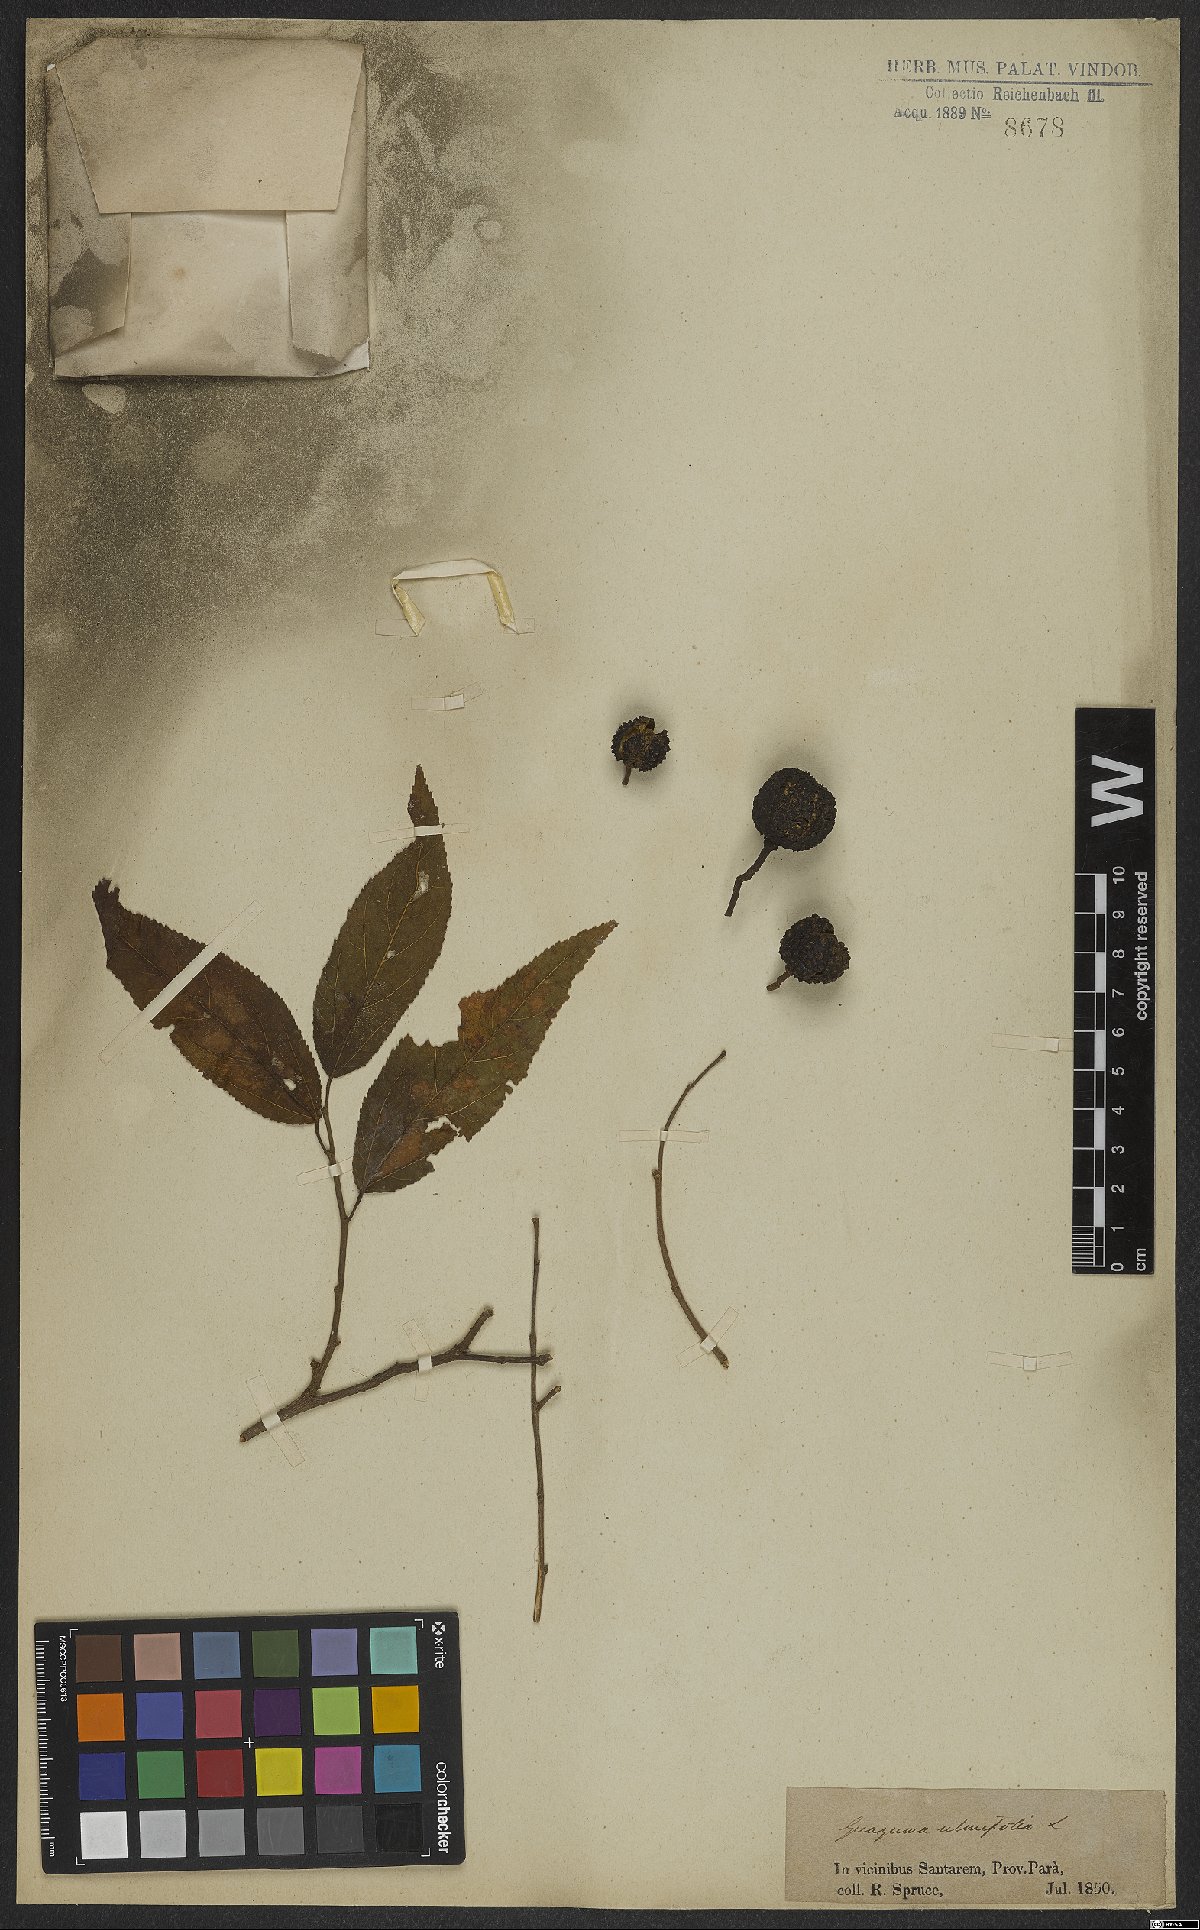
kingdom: Plantae
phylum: Tracheophyta
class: Magnoliopsida
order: Malvales
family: Malvaceae
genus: Guazuma
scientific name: Guazuma ulmifolia
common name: Bastard-cedar
